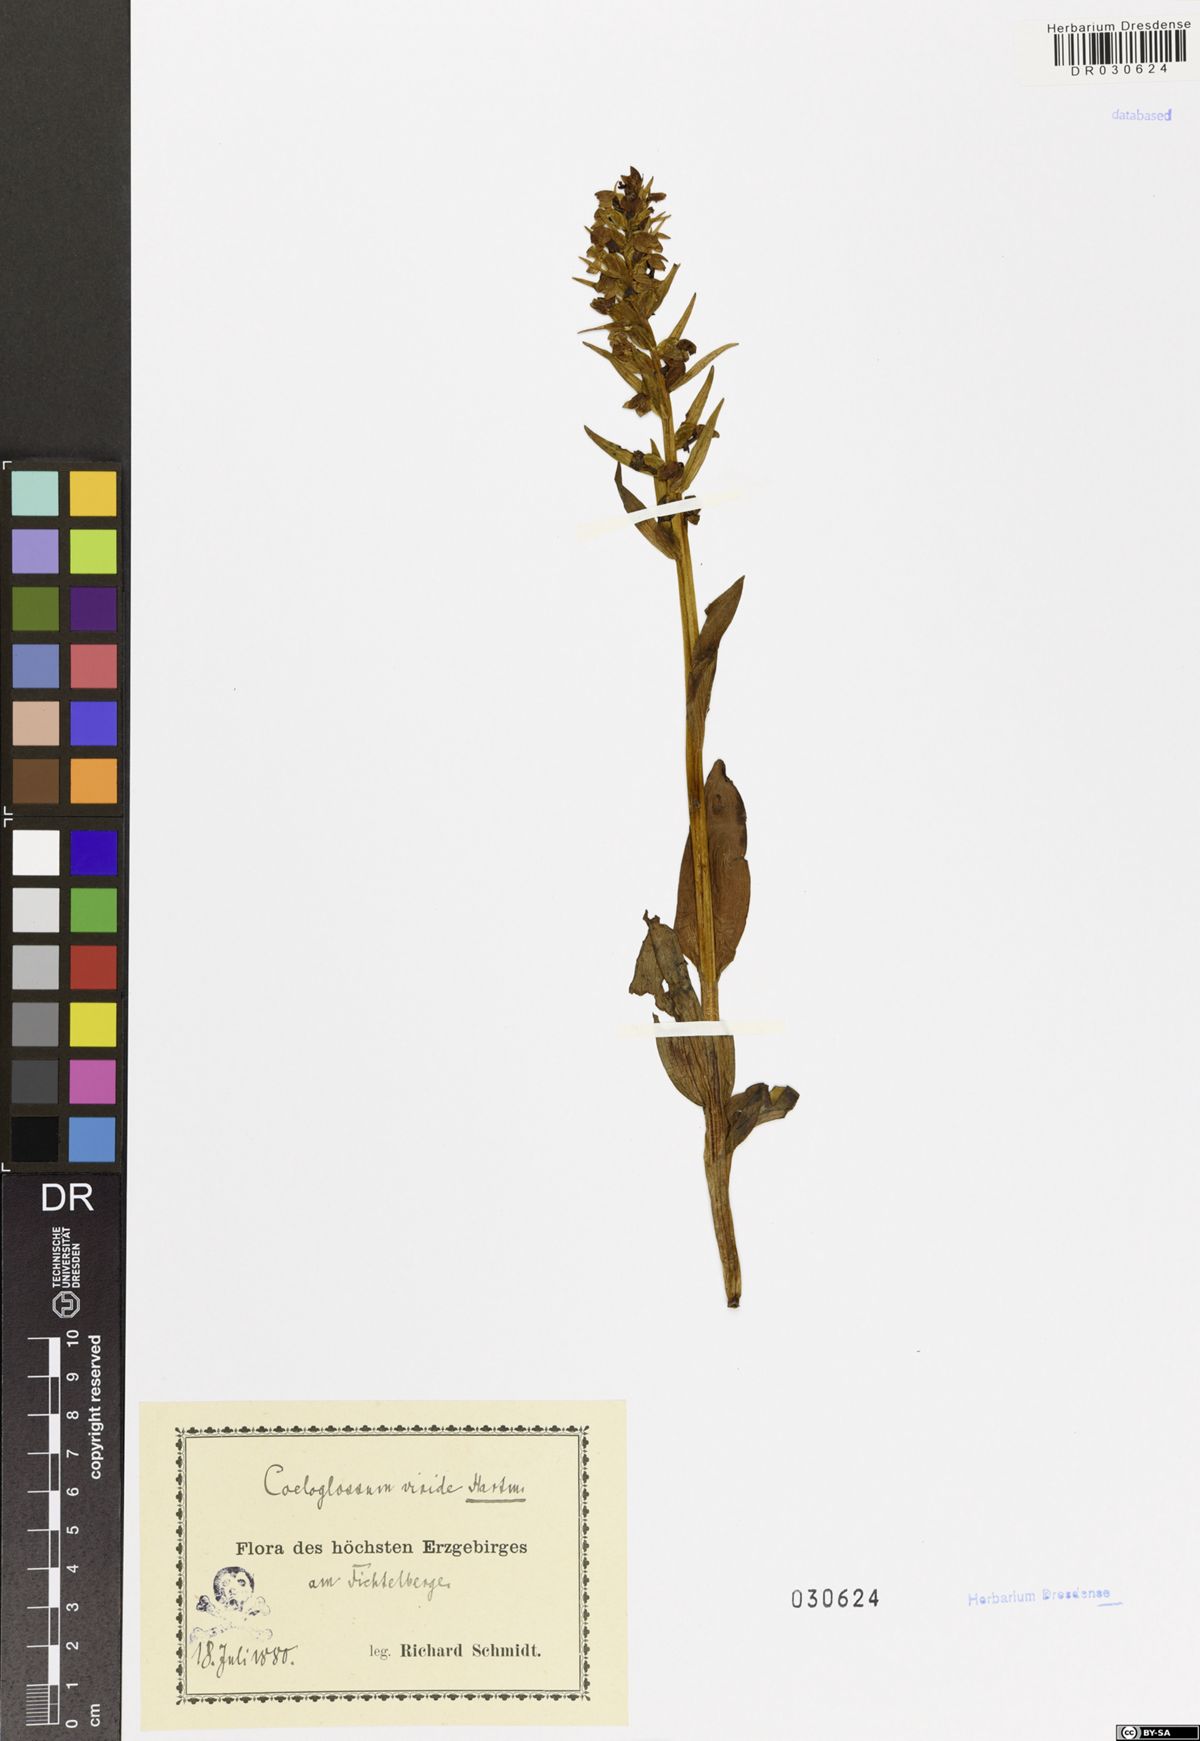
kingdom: Plantae
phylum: Tracheophyta
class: Liliopsida
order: Asparagales
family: Orchidaceae
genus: Dactylorhiza
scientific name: Dactylorhiza viridis
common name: Longbract frog orchid
